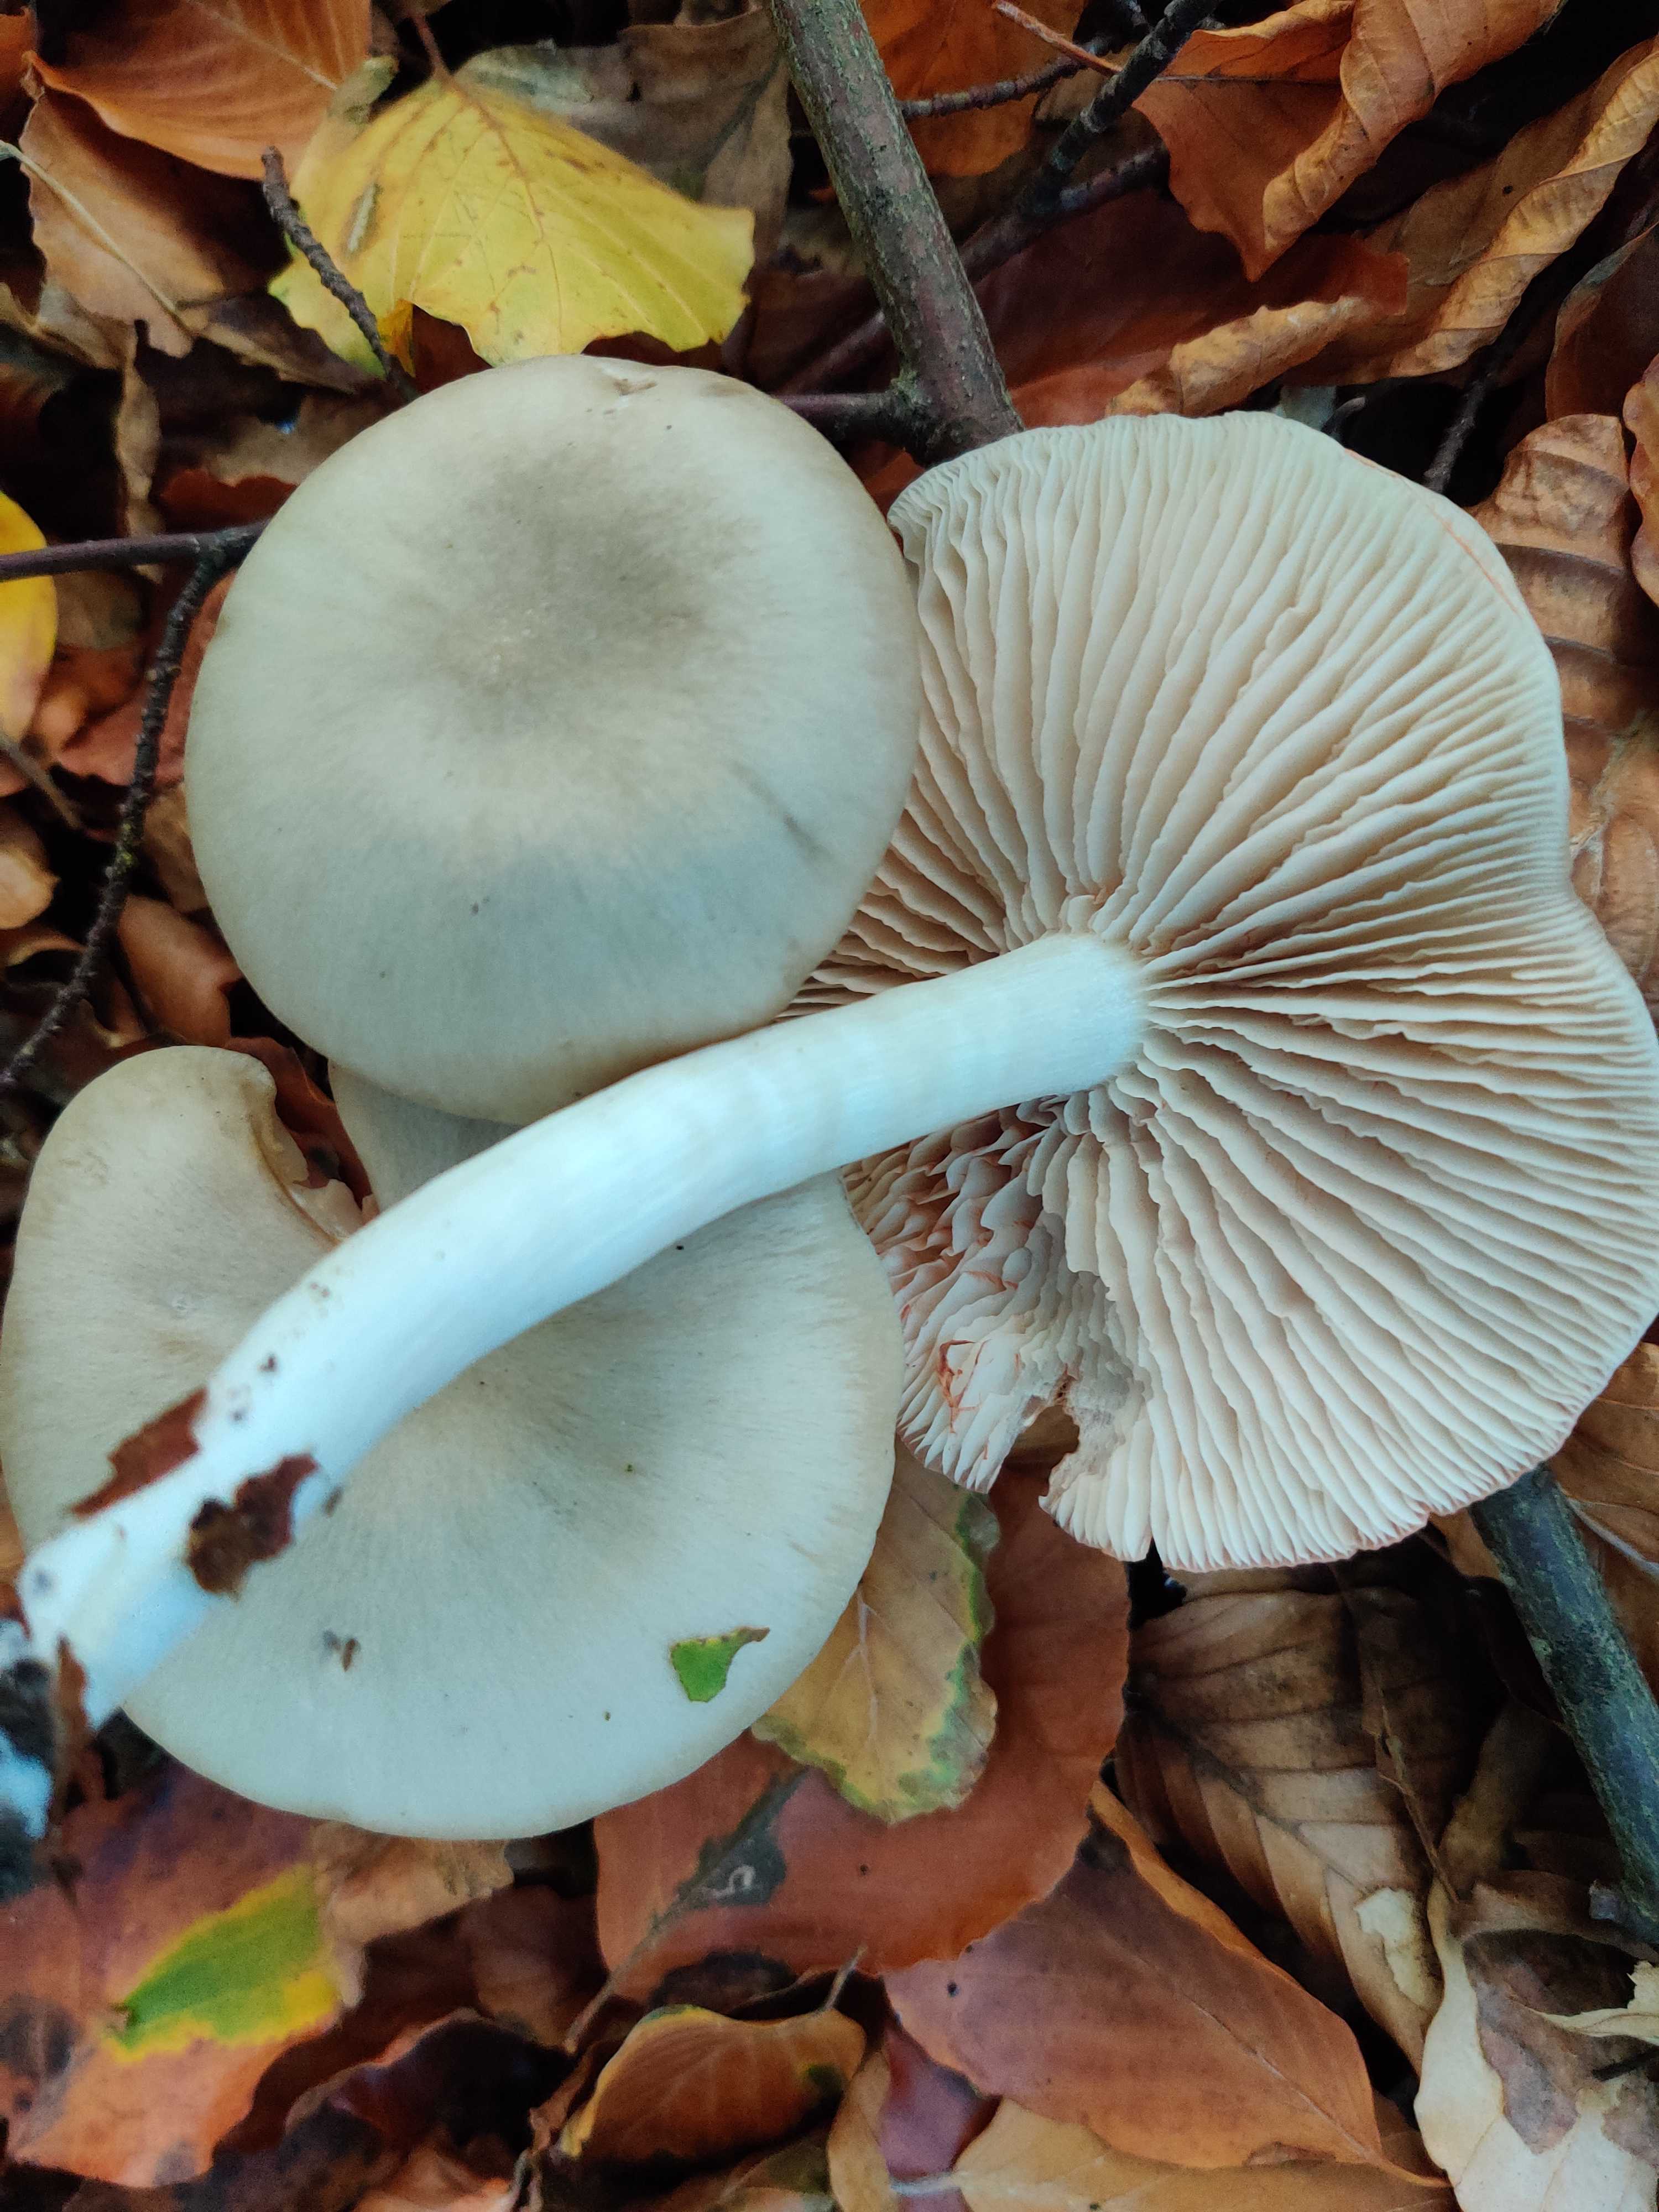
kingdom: Fungi
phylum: Basidiomycota
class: Agaricomycetes
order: Agaricales
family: Entolomataceae
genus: Entoloma
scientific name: Entoloma rhodopolium
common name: skov-rødblad
